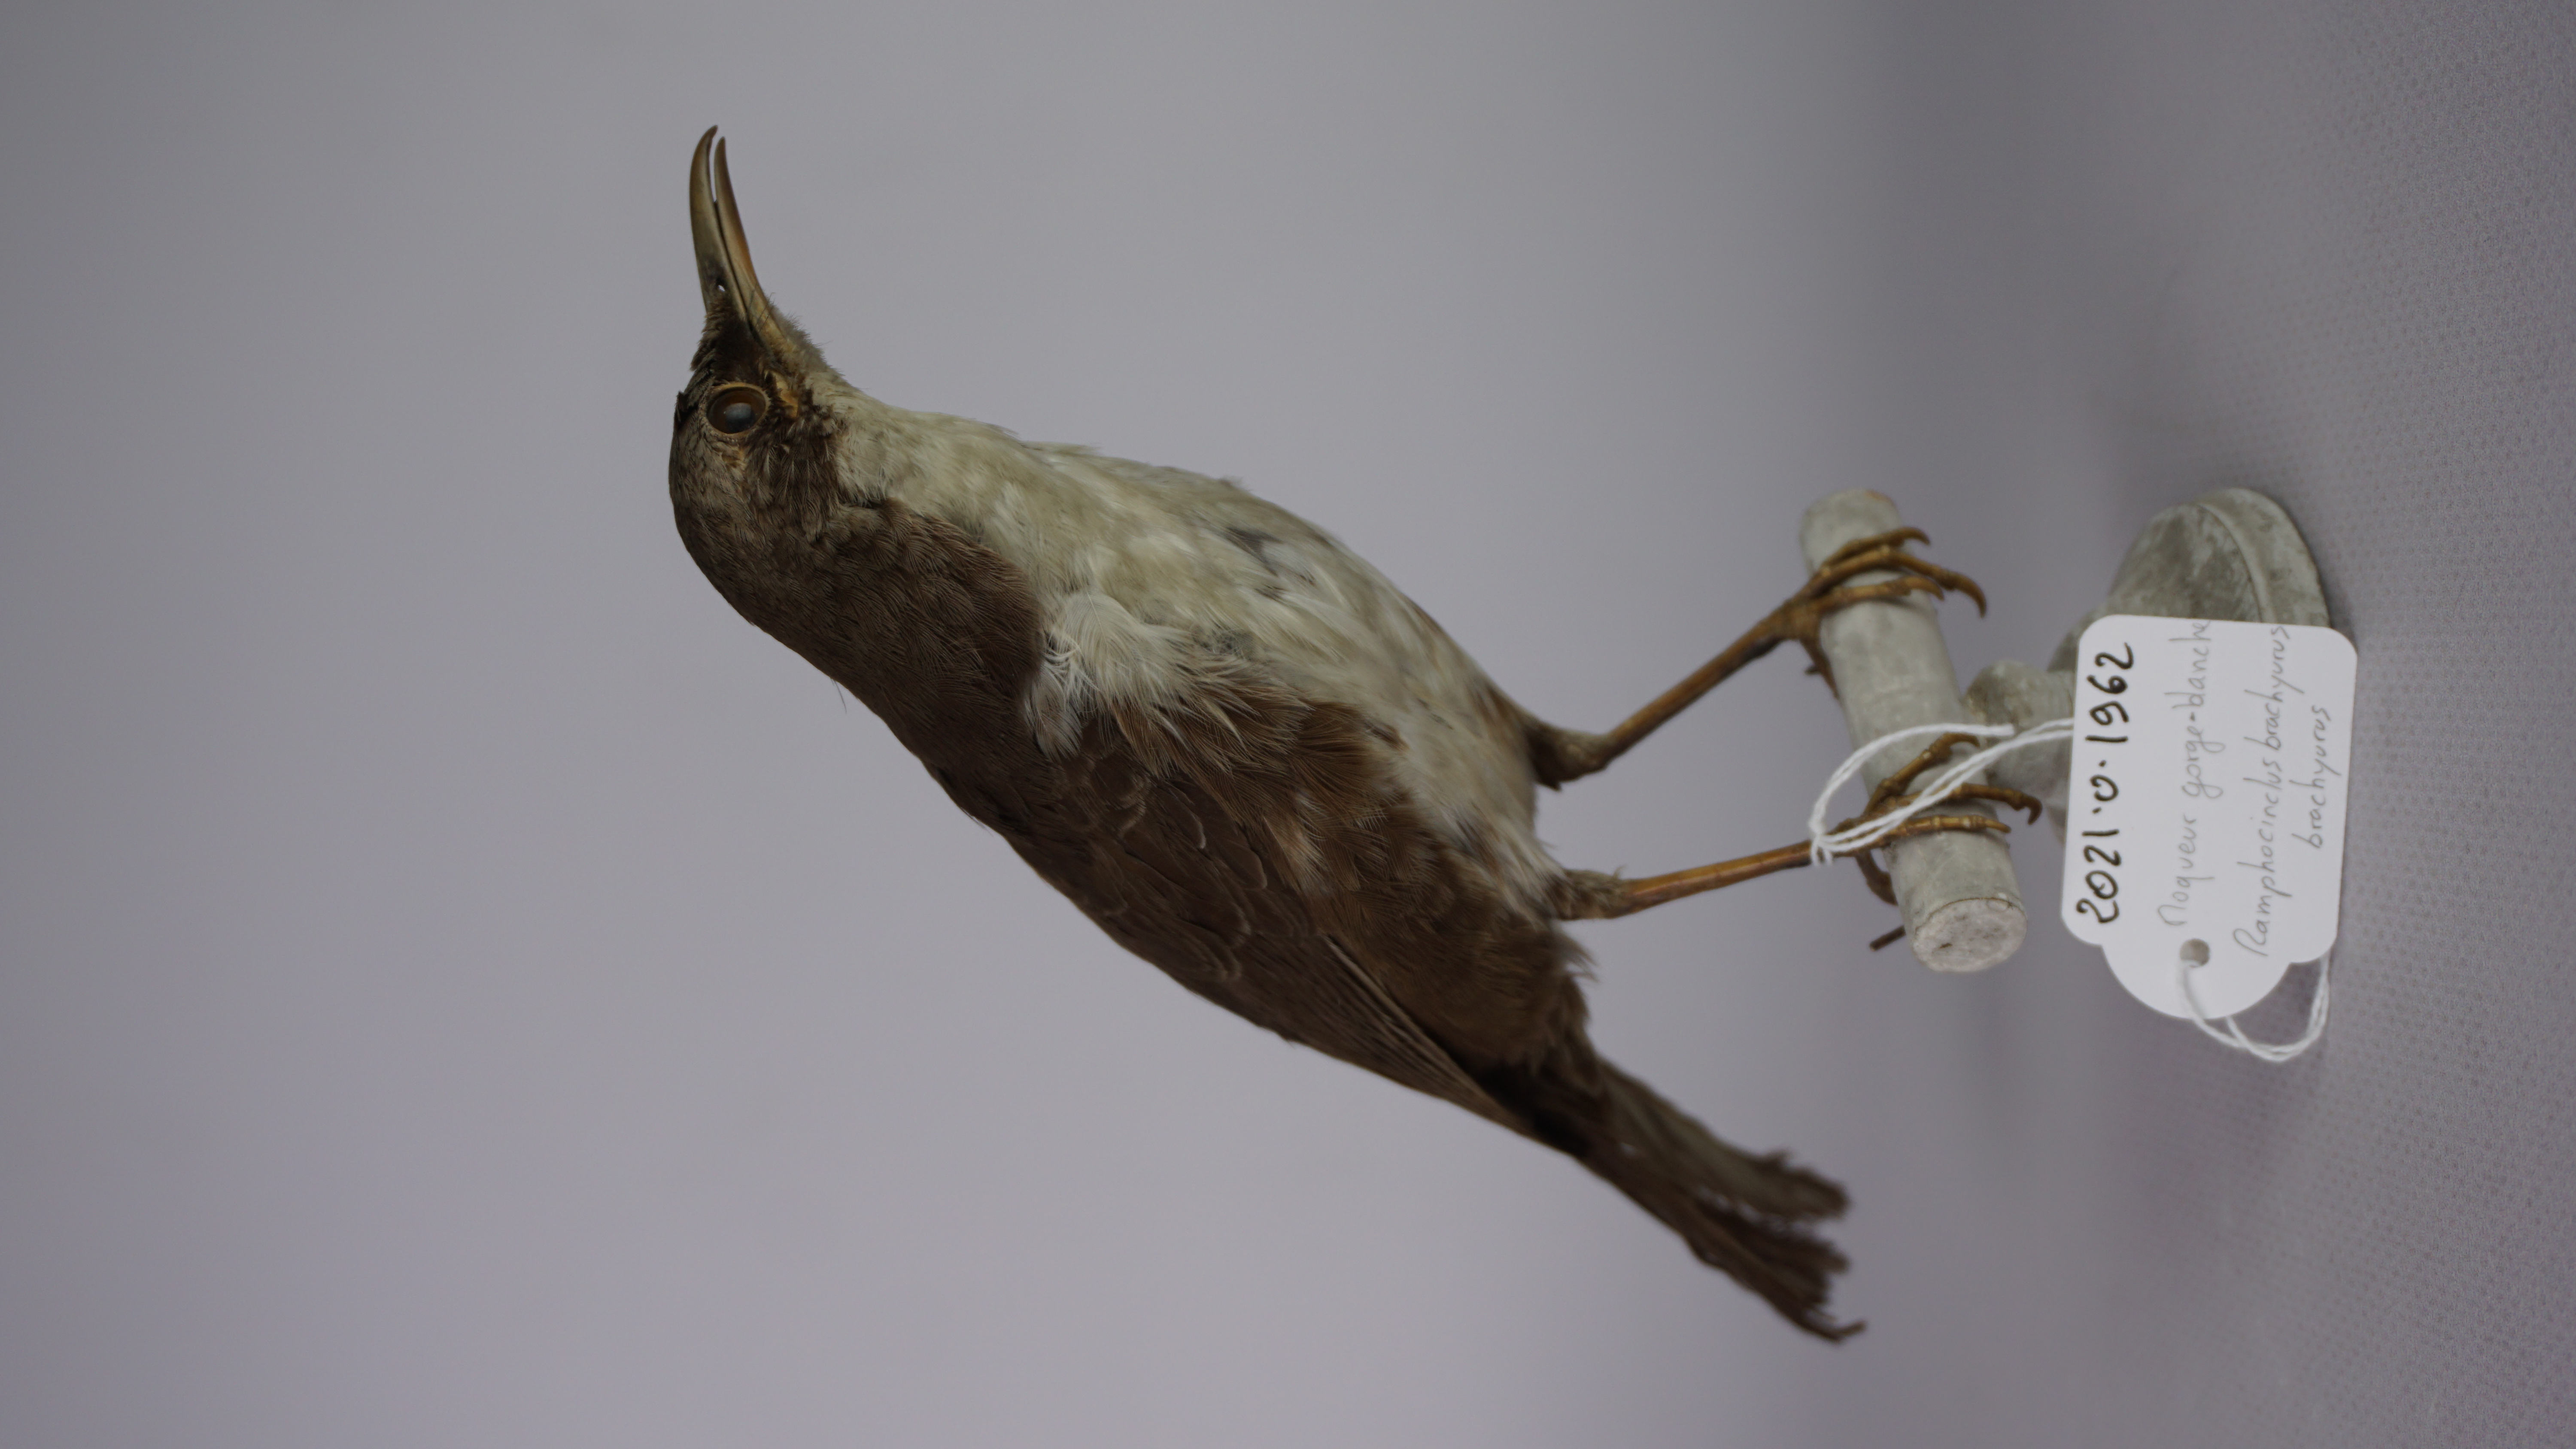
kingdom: Animalia
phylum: Chordata
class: Aves
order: Passeriformes
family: Mimidae
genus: Ramphocinclus
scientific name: Ramphocinclus brachyurus
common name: White-breasted thrasher
